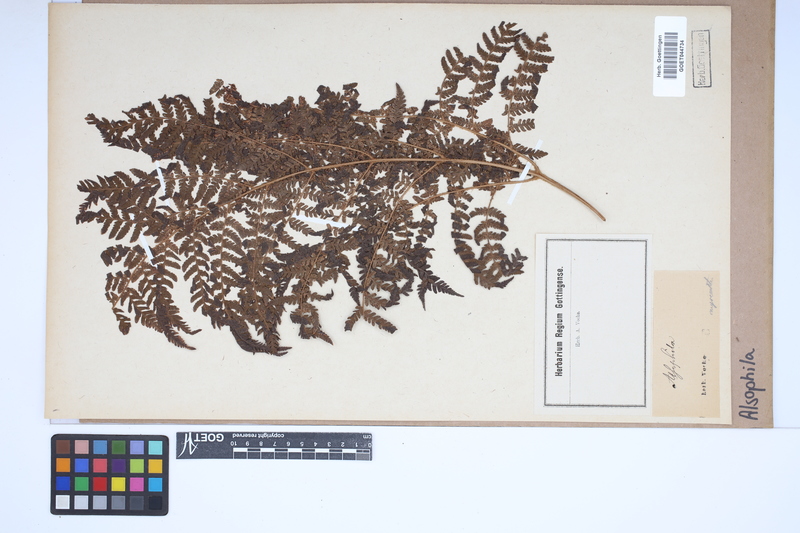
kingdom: Plantae
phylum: Tracheophyta
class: Polypodiopsida
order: Cyatheales
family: Cyatheaceae
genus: Alsophila
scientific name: Alsophila
